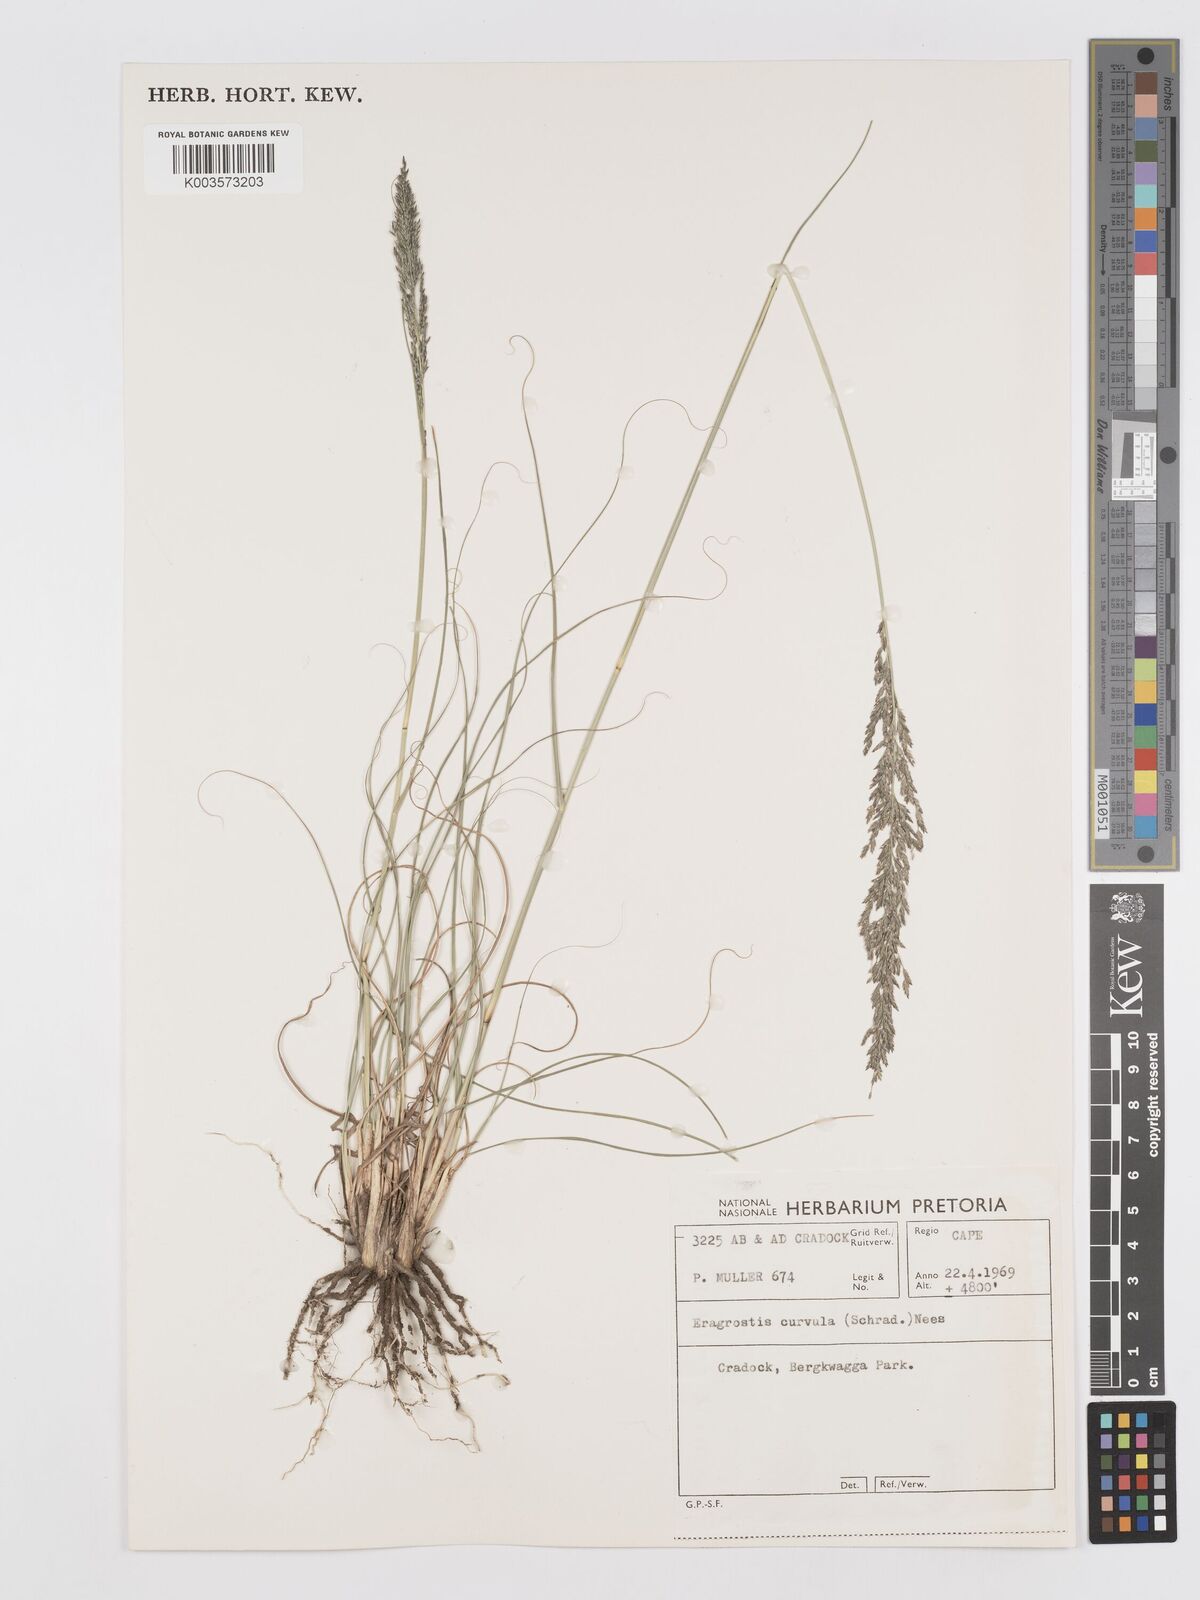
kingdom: Plantae
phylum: Tracheophyta
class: Liliopsida
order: Poales
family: Poaceae
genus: Eragrostis
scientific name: Eragrostis curvula
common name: African love-grass
